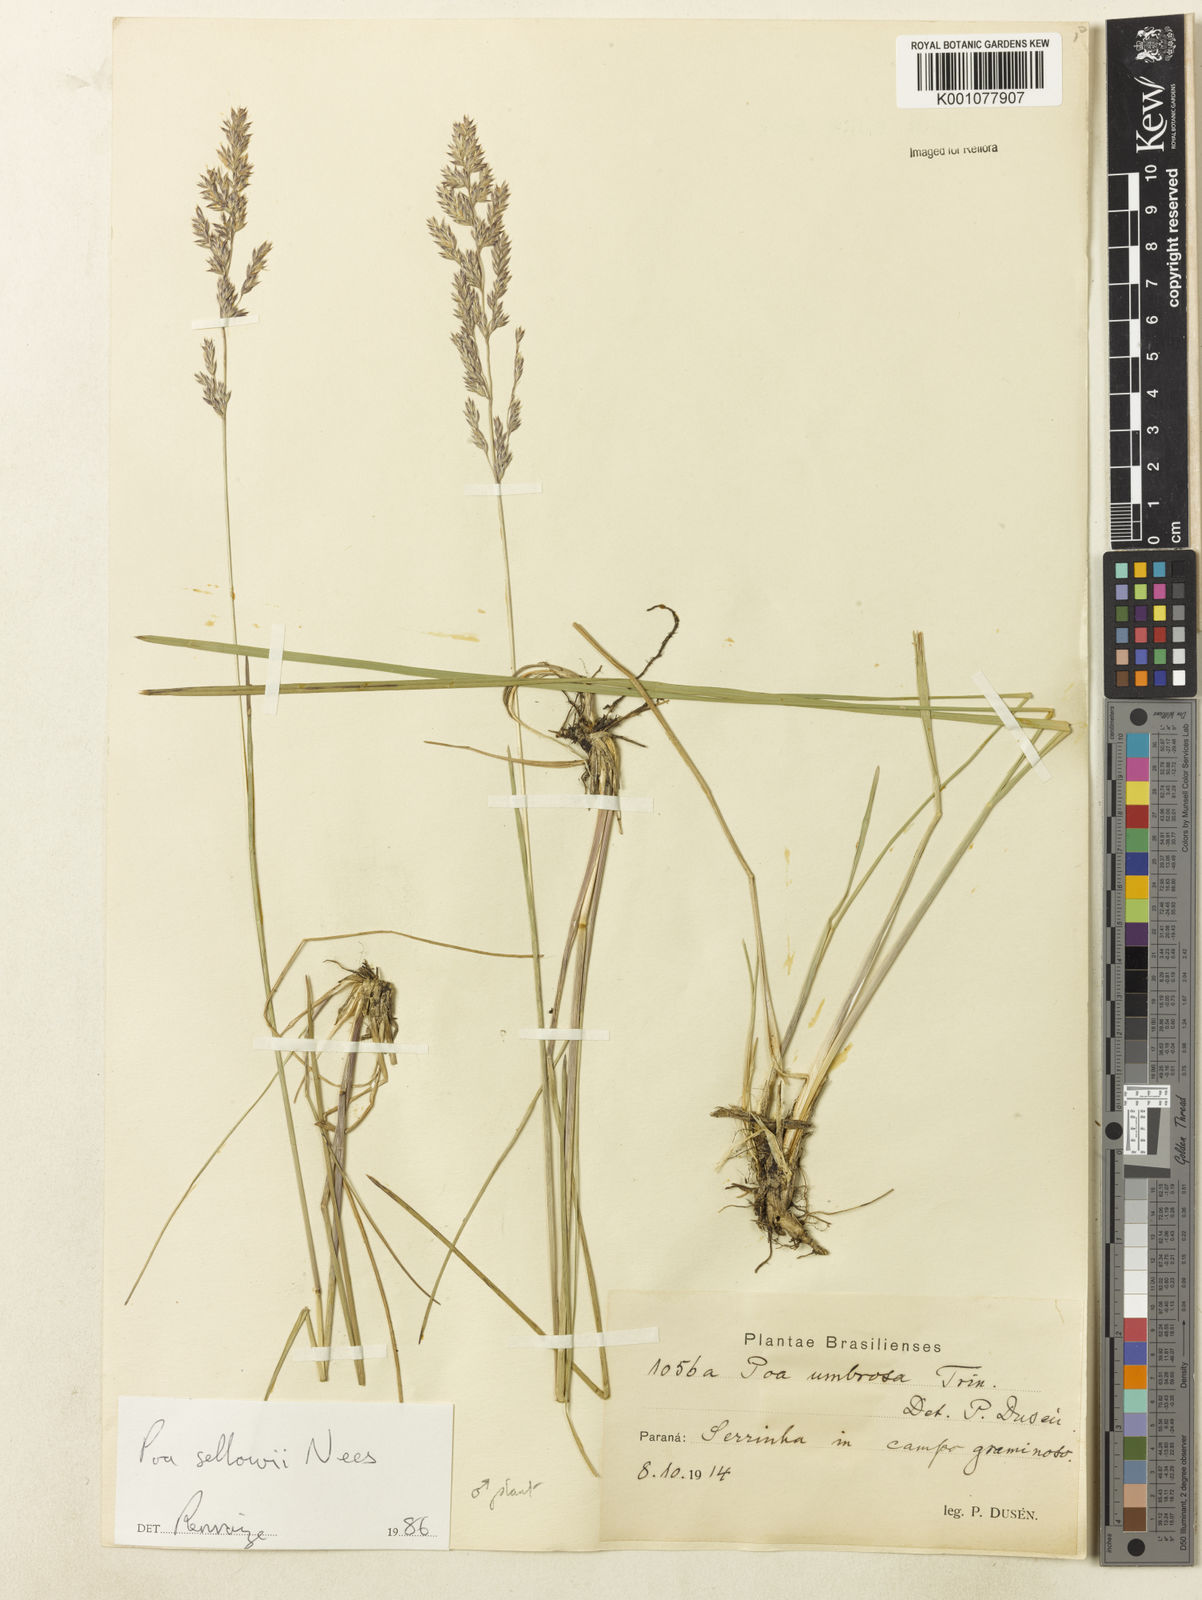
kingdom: Plantae
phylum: Tracheophyta
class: Liliopsida
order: Poales
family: Poaceae
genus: Poa
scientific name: Poa
